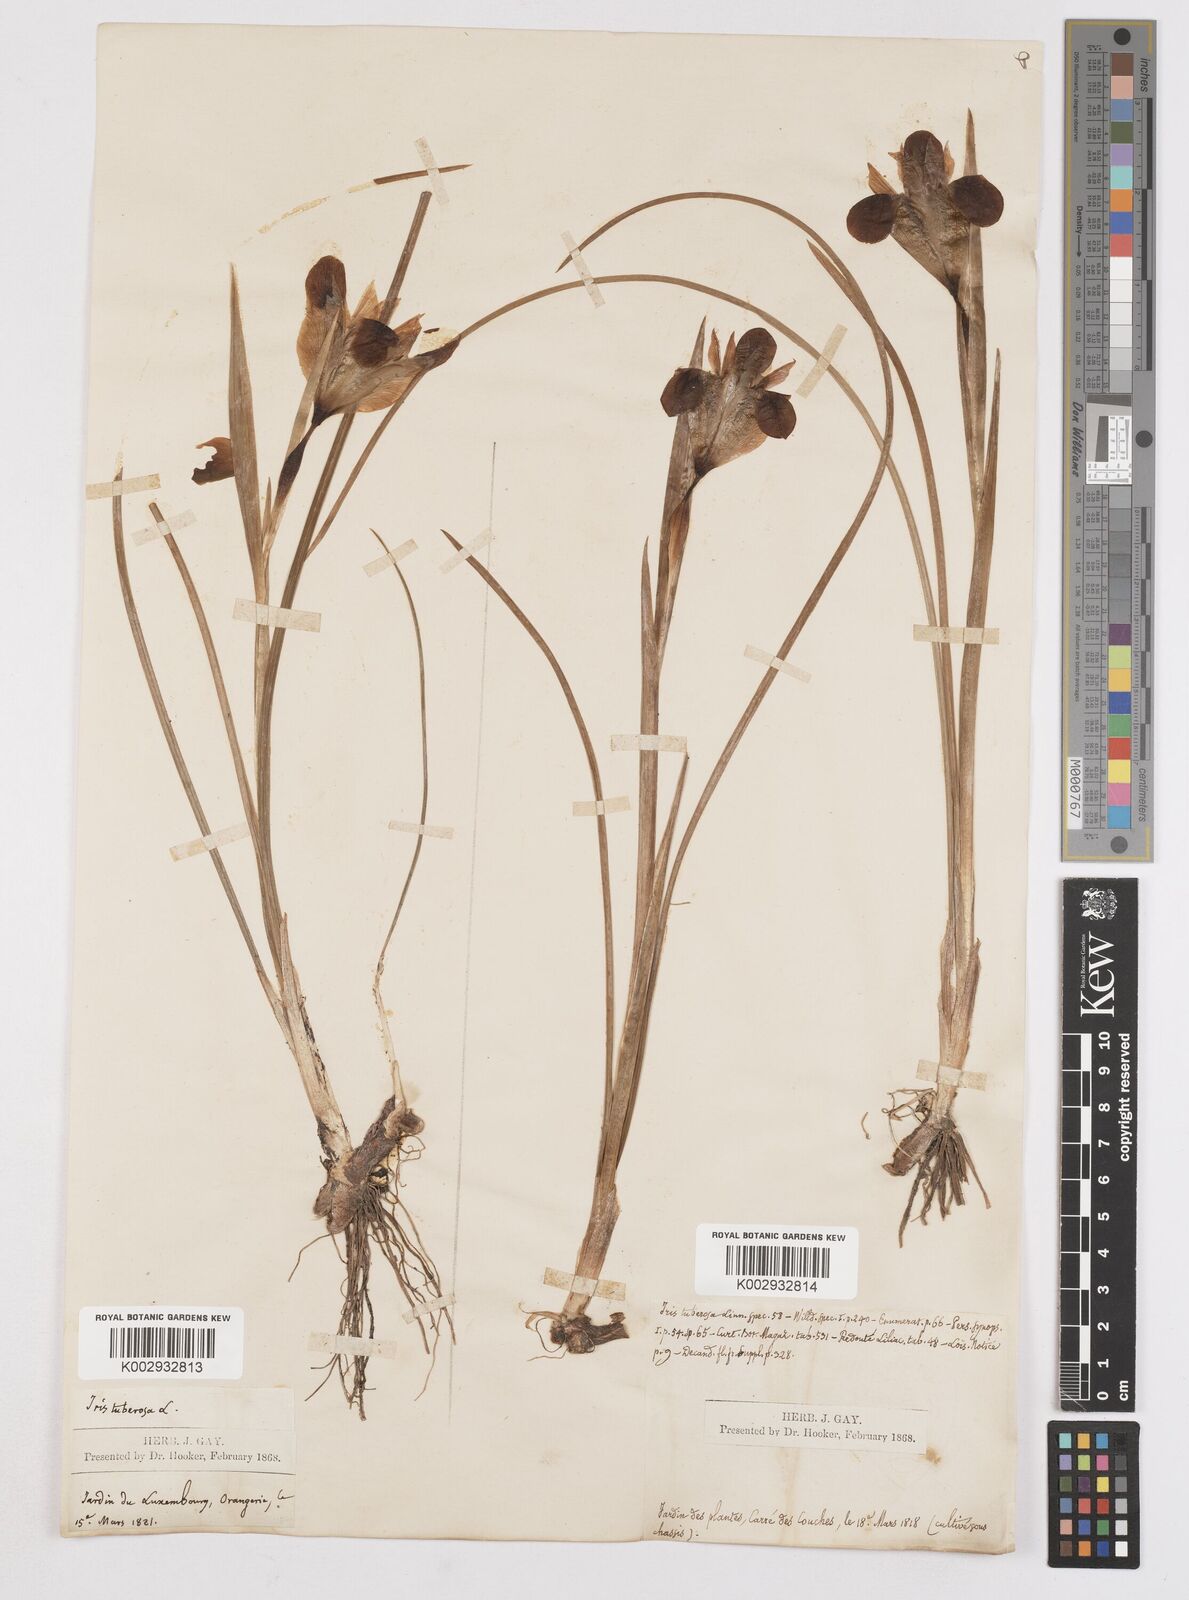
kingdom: Plantae
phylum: Tracheophyta
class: Liliopsida
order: Asparagales
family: Iridaceae
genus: Iris
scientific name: Iris tuberosa
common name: Snake's-head iris
